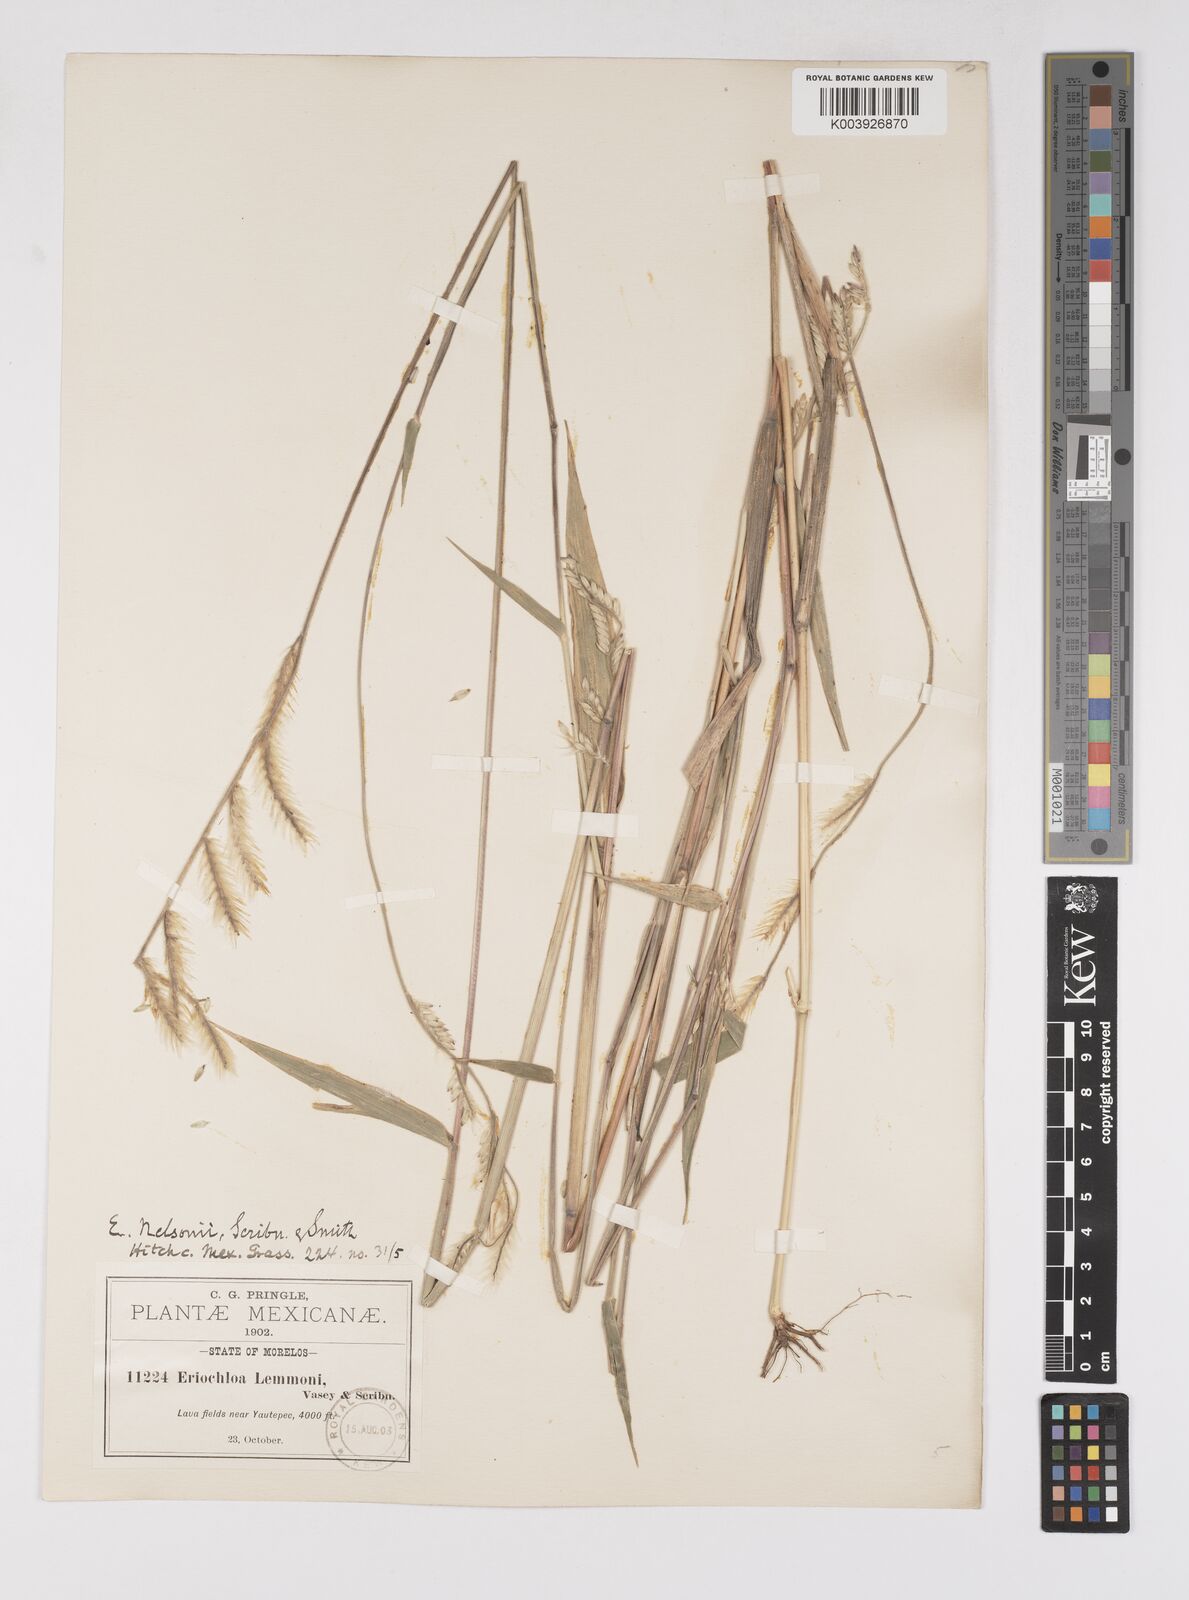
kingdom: Plantae
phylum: Tracheophyta
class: Liliopsida
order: Poales
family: Poaceae
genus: Eriochloa
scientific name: Eriochloa nelsonii
